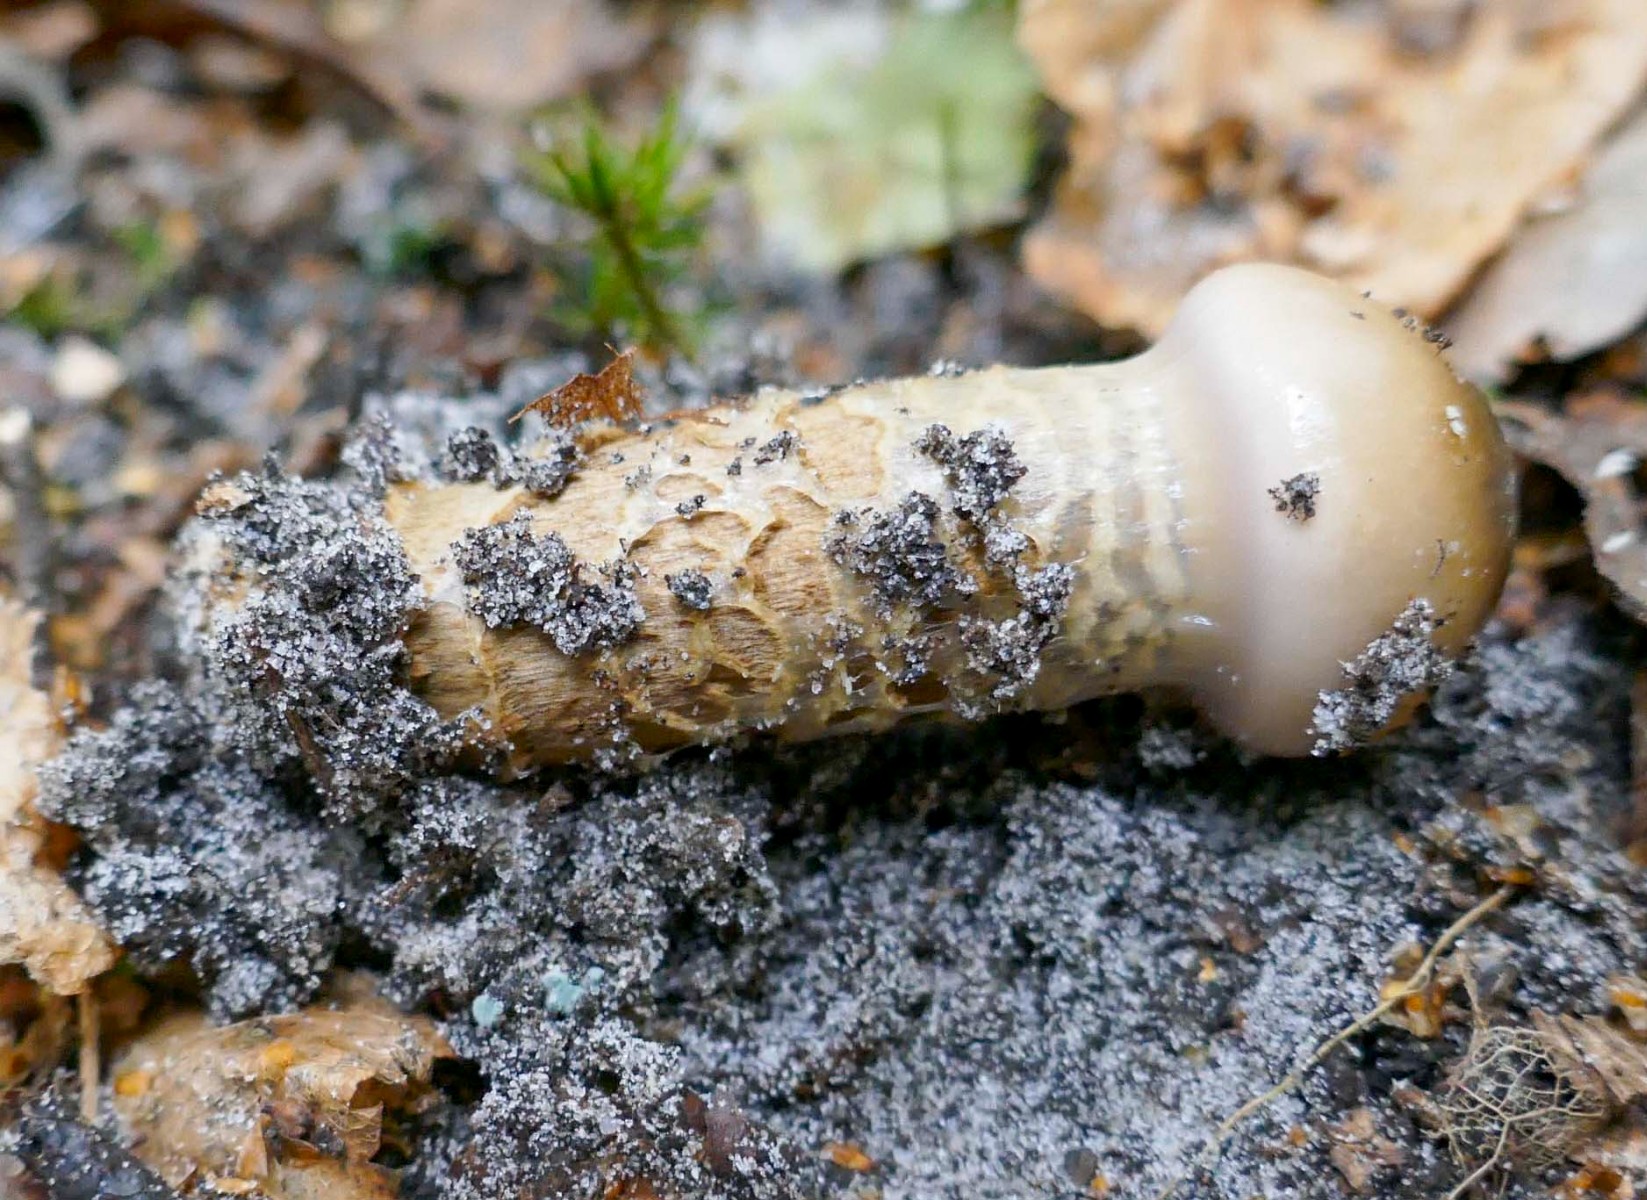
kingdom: Fungi
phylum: Basidiomycota
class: Agaricomycetes
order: Agaricales
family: Cortinariaceae
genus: Cortinarius
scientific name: Cortinarius trivialis
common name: brunslimet slørhat
